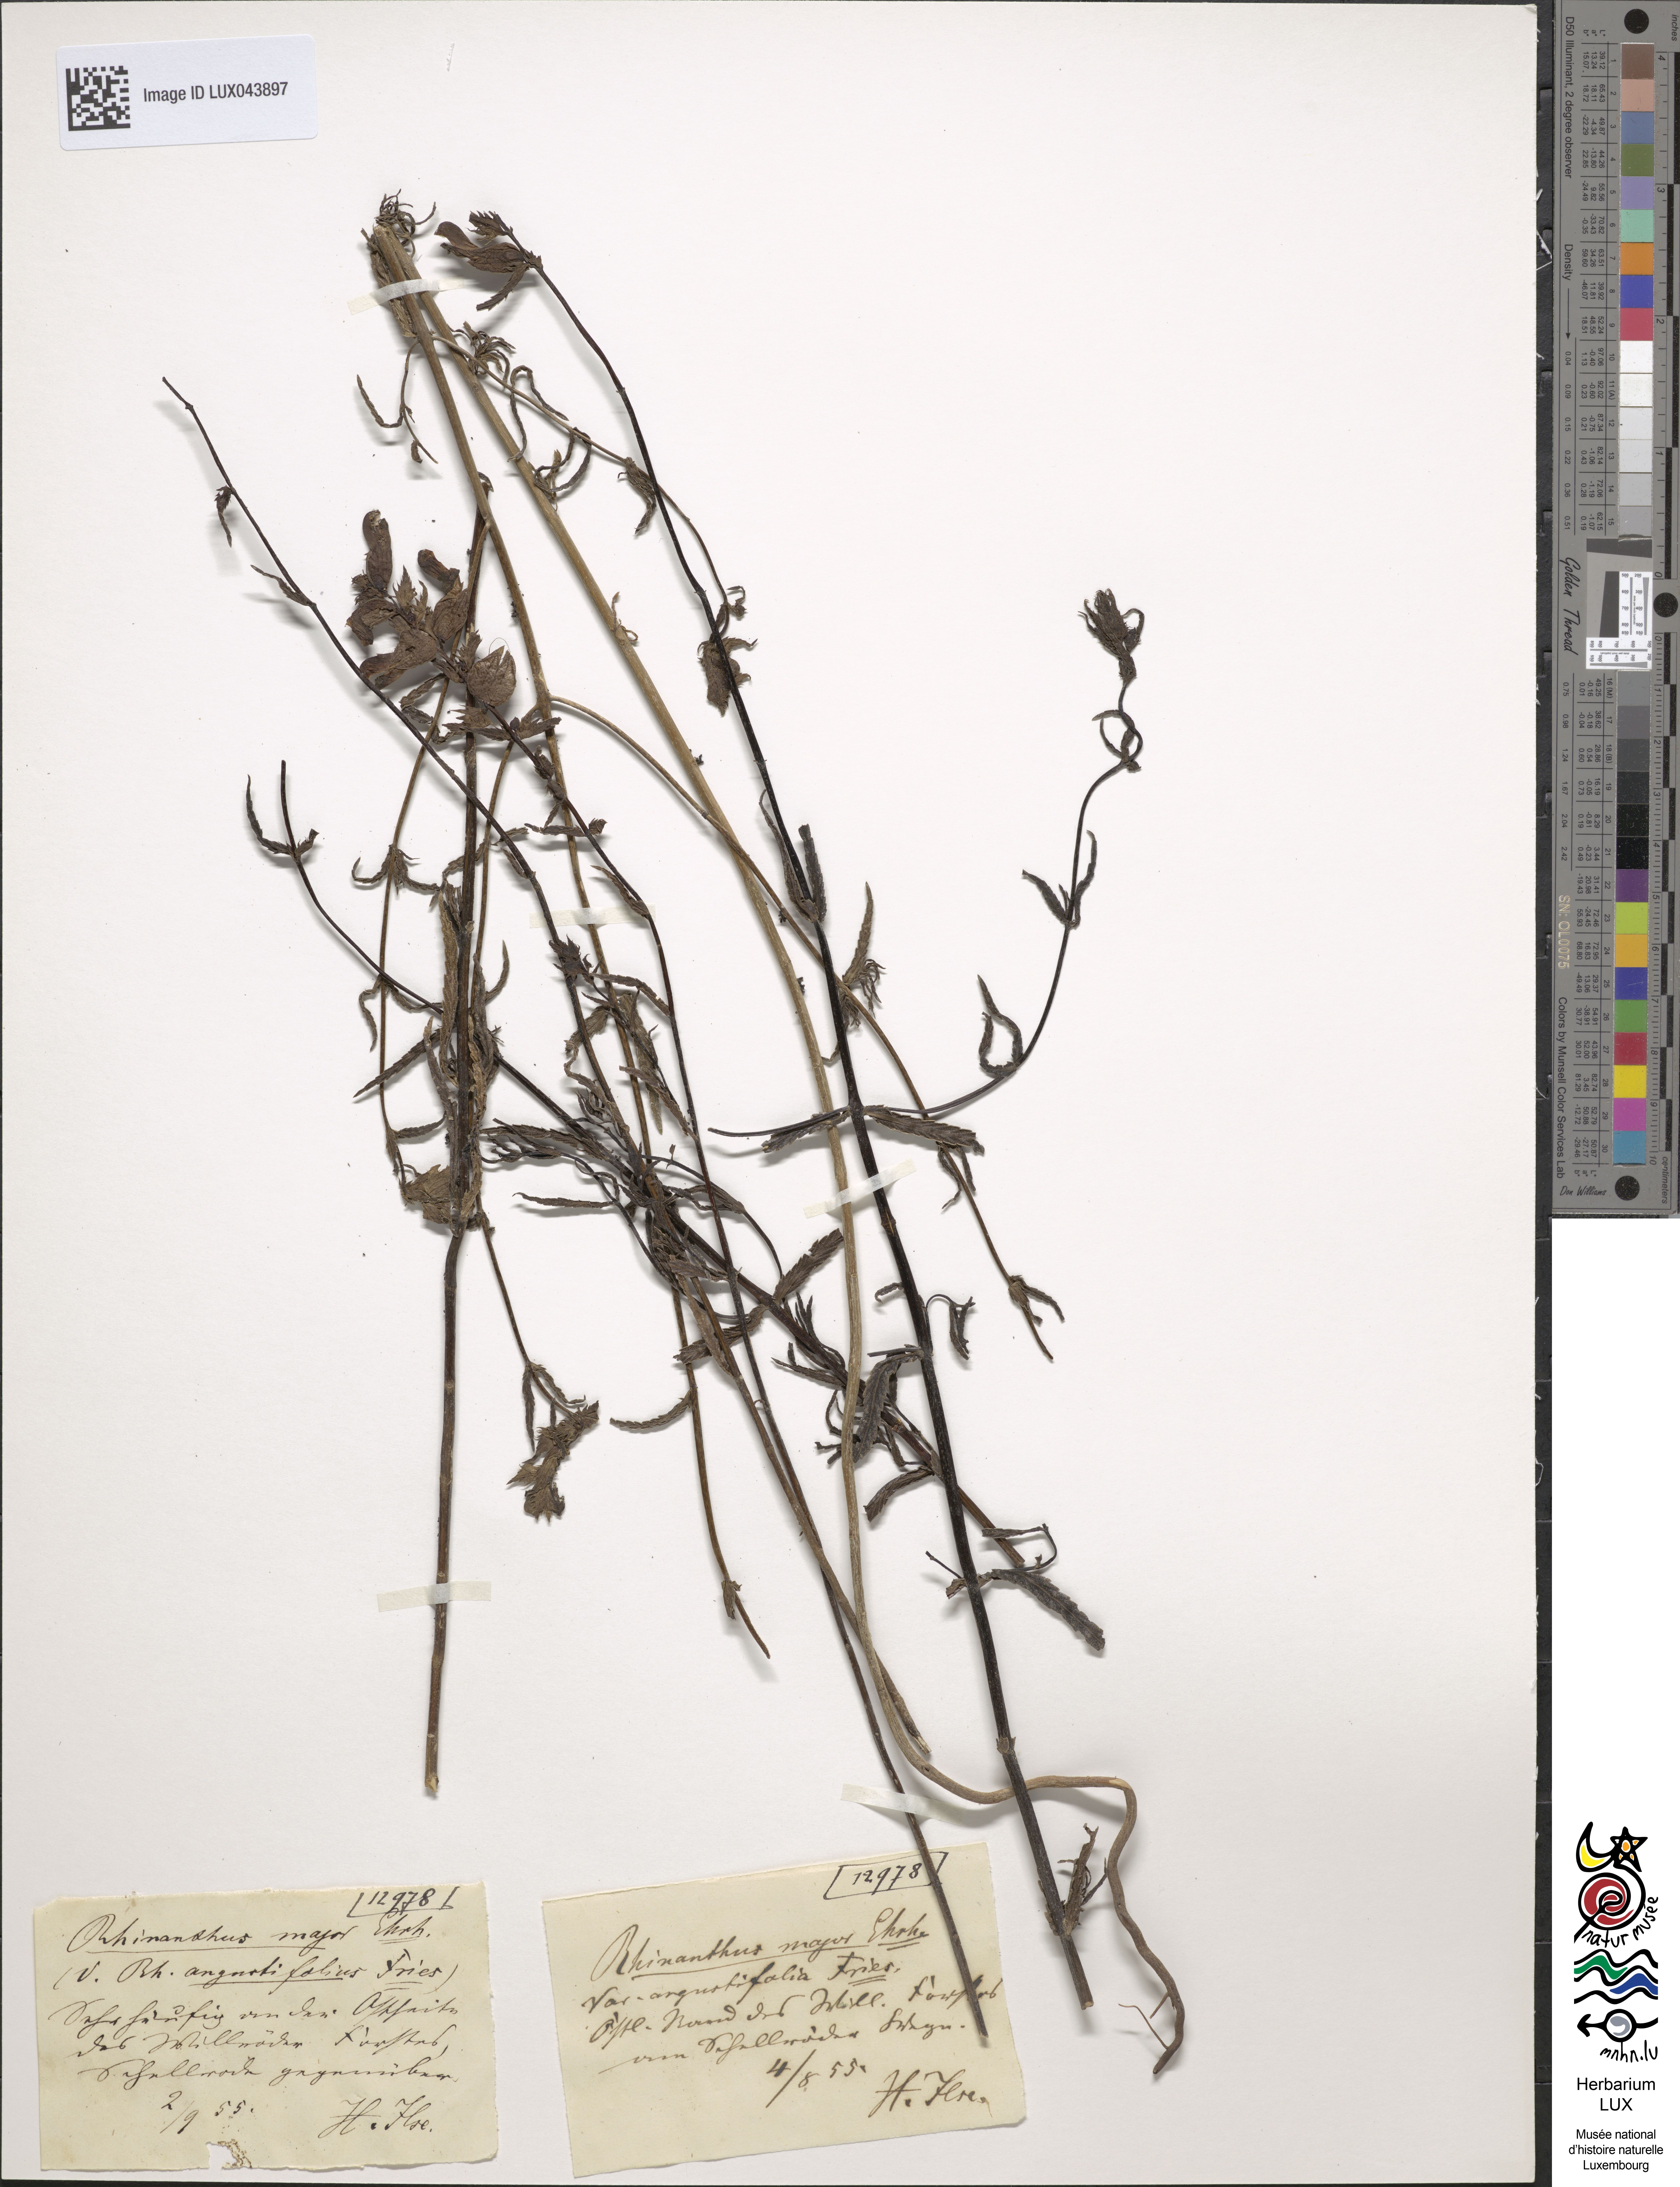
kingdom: Plantae
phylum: Tracheophyta
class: Magnoliopsida
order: Lamiales
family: Orobanchaceae
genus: Rhinanthus
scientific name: Rhinanthus serotinus
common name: Late-flowering yellow rattle
